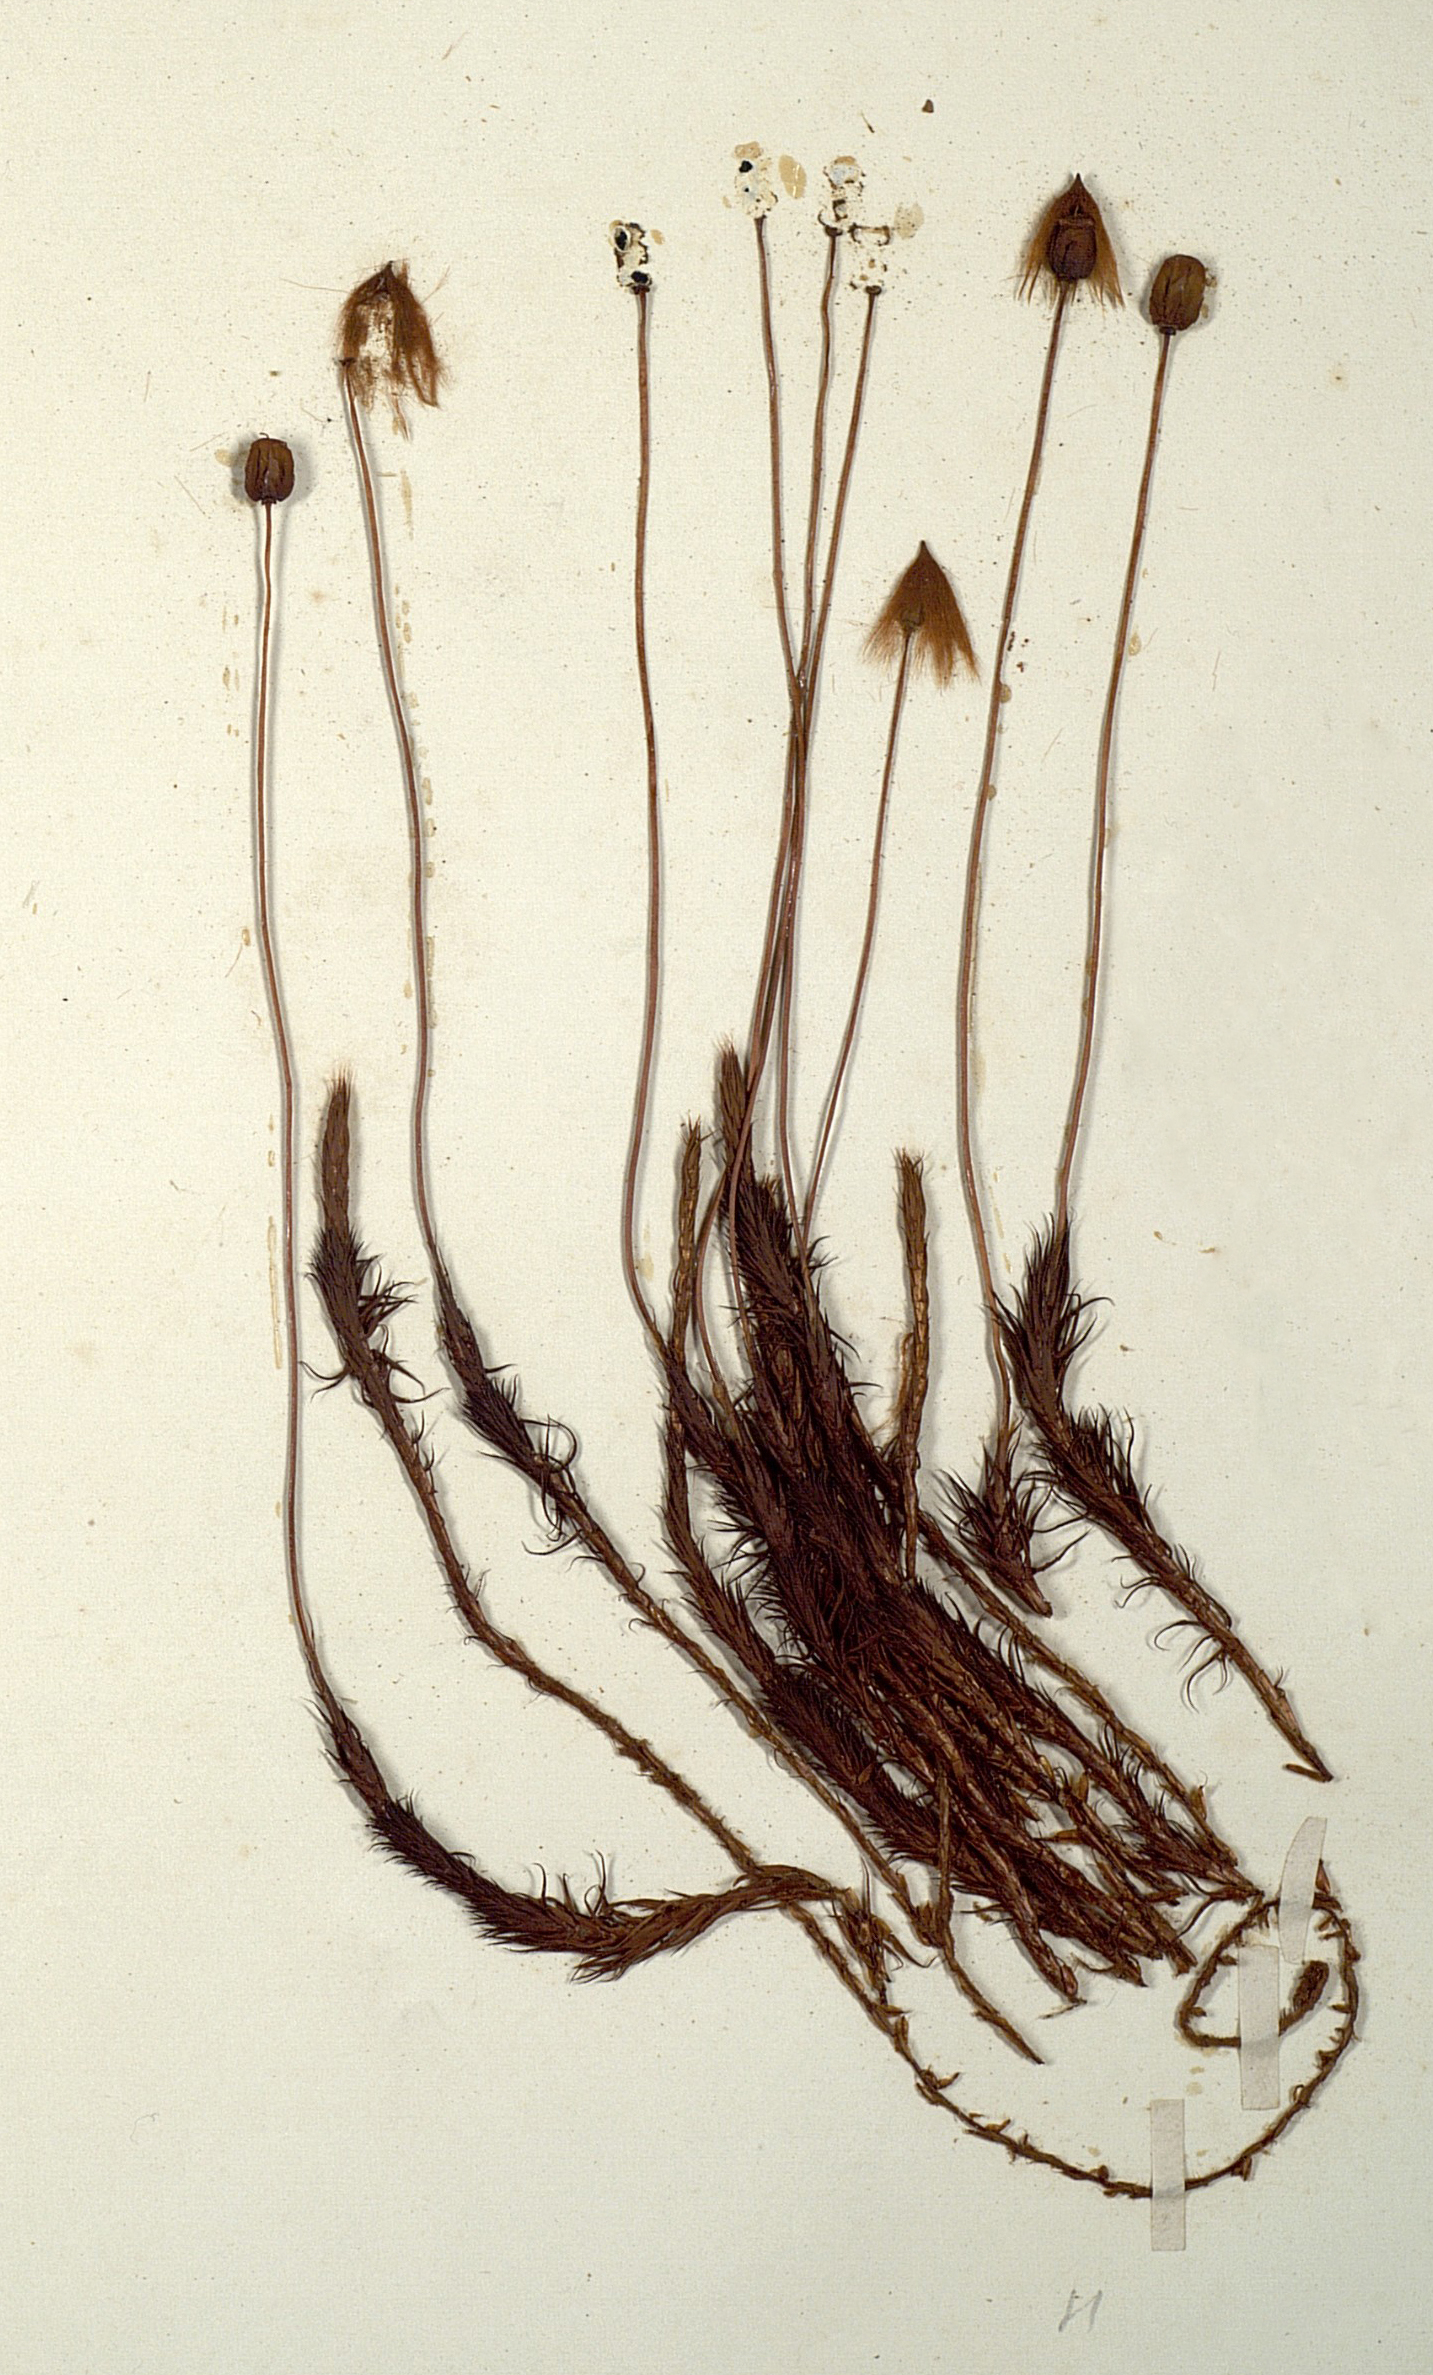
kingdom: Plantae
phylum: Bryophyta
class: Polytrichopsida
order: Polytrichales
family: Polytrichaceae
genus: Polytrichum
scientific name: Polytrichum
